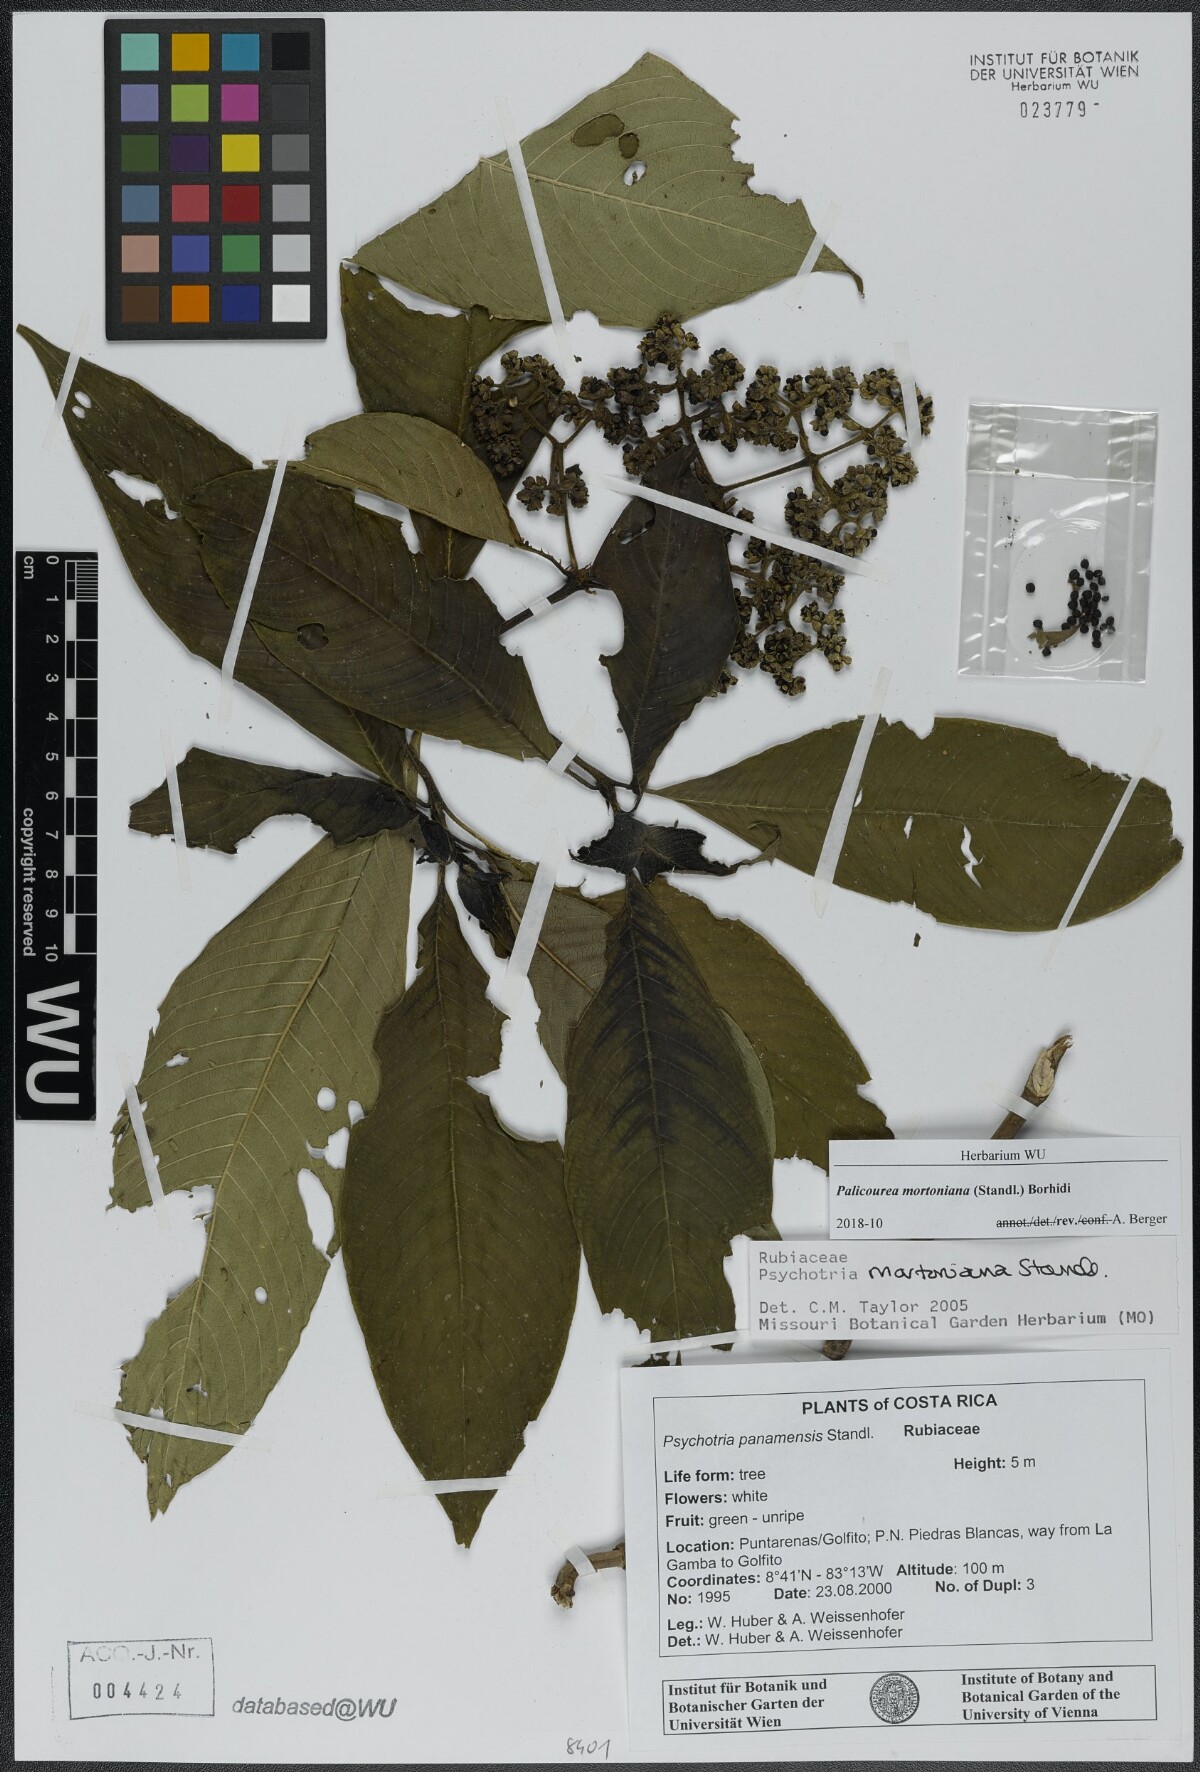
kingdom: Plantae
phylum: Tracheophyta
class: Magnoliopsida
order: Gentianales
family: Rubiaceae
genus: Palicourea
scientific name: Palicourea mortoniana
